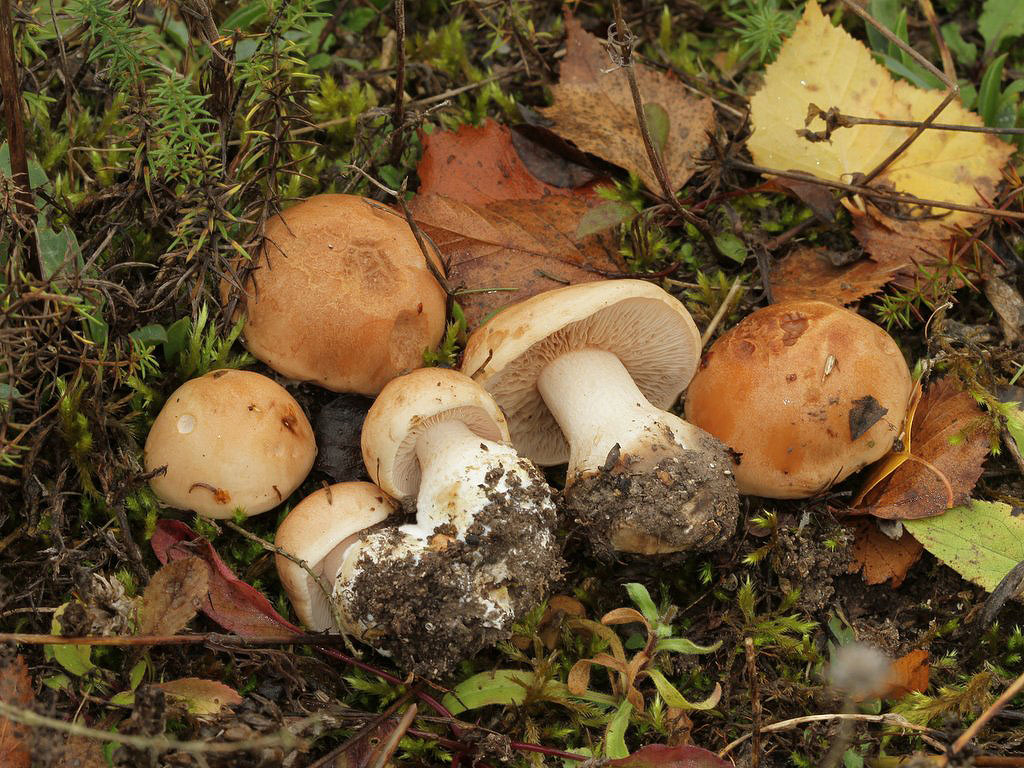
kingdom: Fungi
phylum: Basidiomycota
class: Agaricomycetes
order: Agaricales
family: Hymenogastraceae
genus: Hebeloma
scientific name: Hebeloma laterinum
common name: kakao-tåreblad
